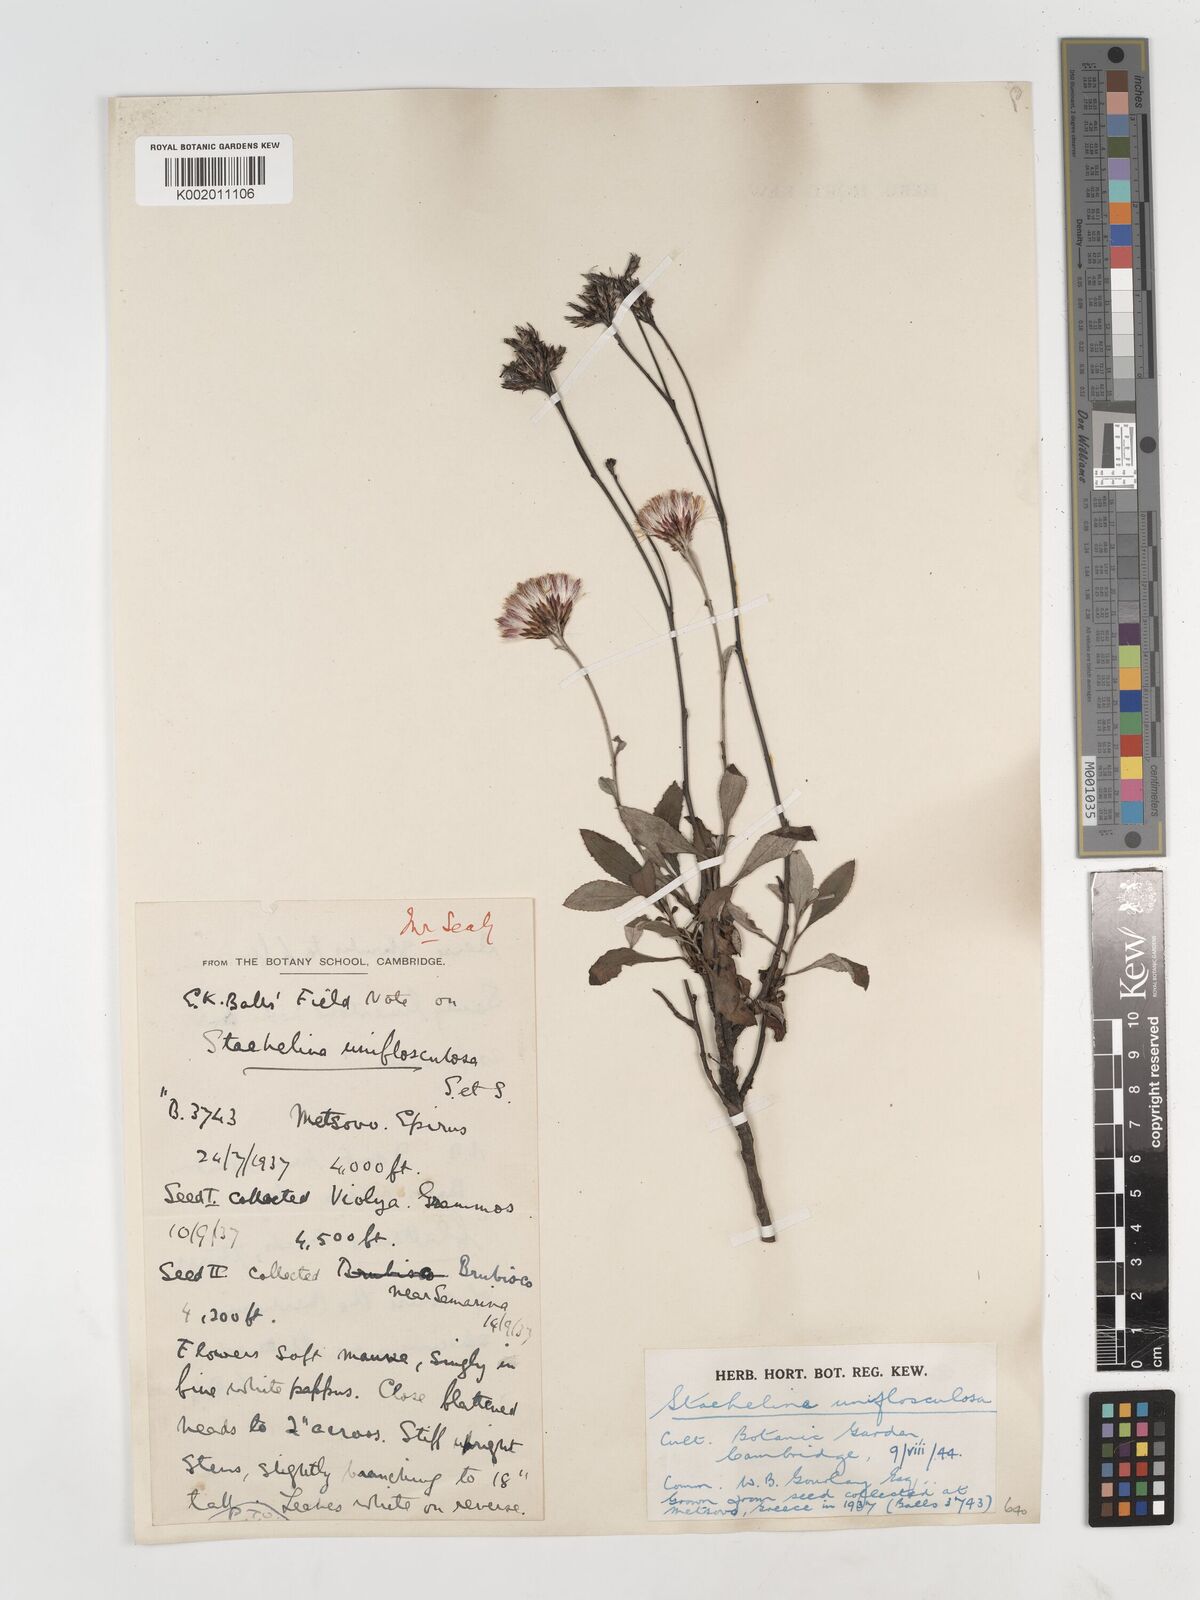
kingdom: Plantae
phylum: Tracheophyta
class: Magnoliopsida
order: Asterales
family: Asteraceae
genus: Staehelina
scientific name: Staehelina uniflosculosa
